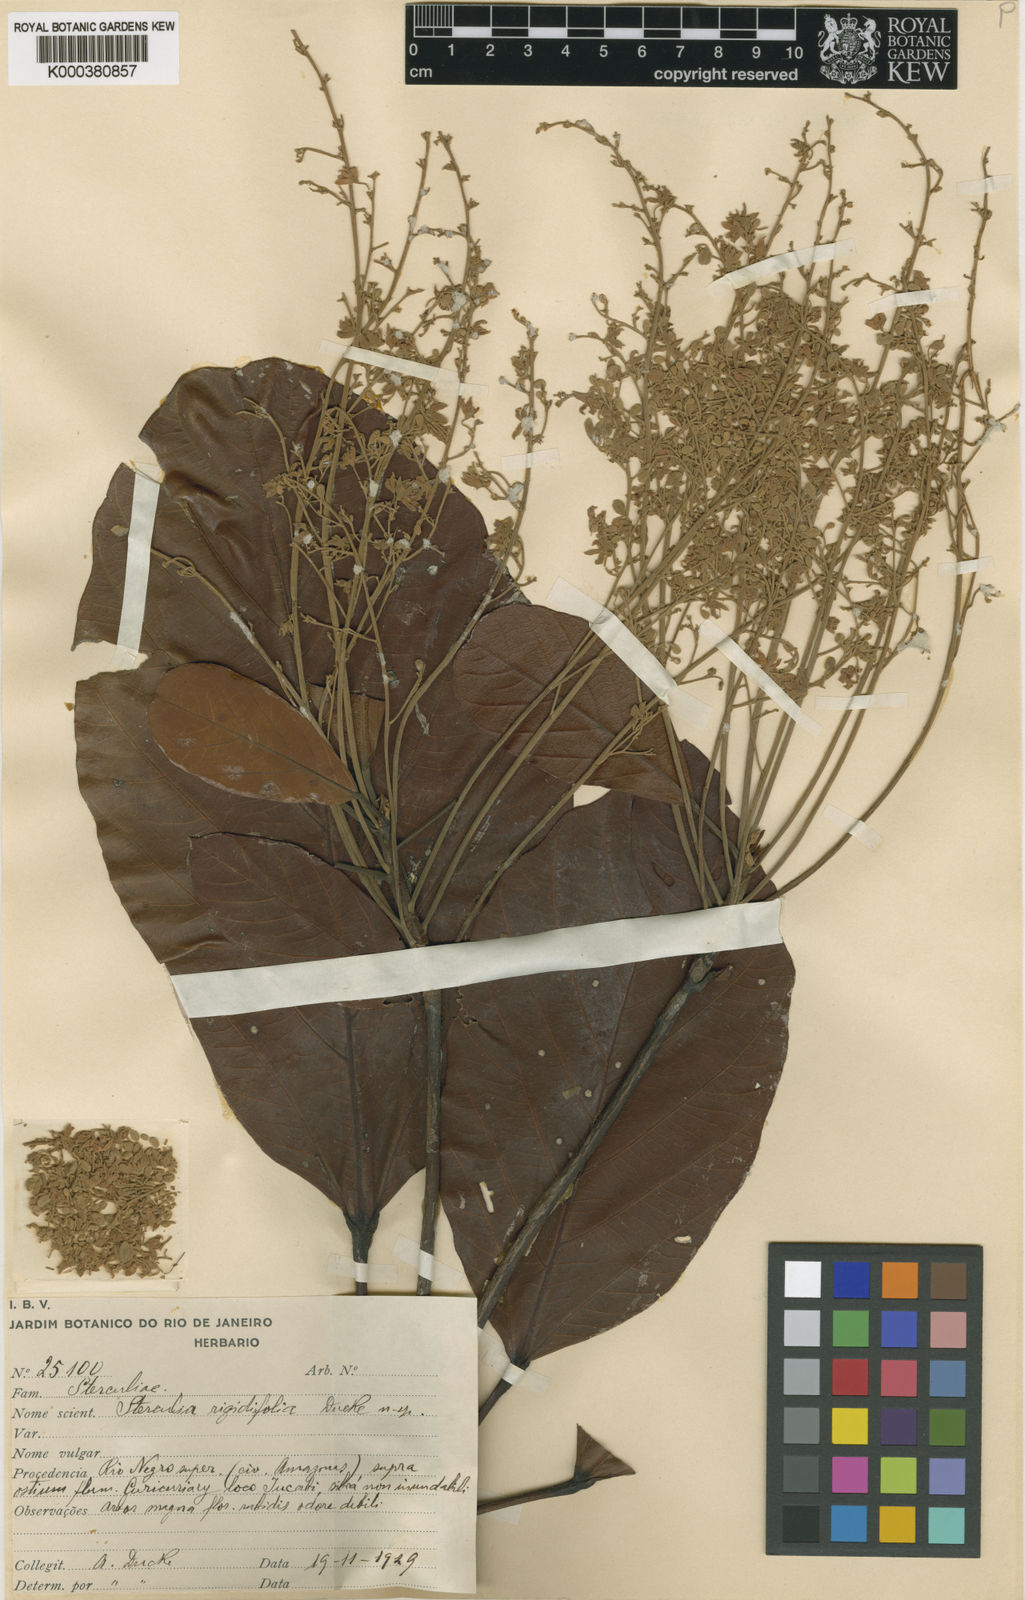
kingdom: Plantae
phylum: Tracheophyta
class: Magnoliopsida
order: Malvales
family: Malvaceae
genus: Sterculia
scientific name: Sterculia rigidifolia
